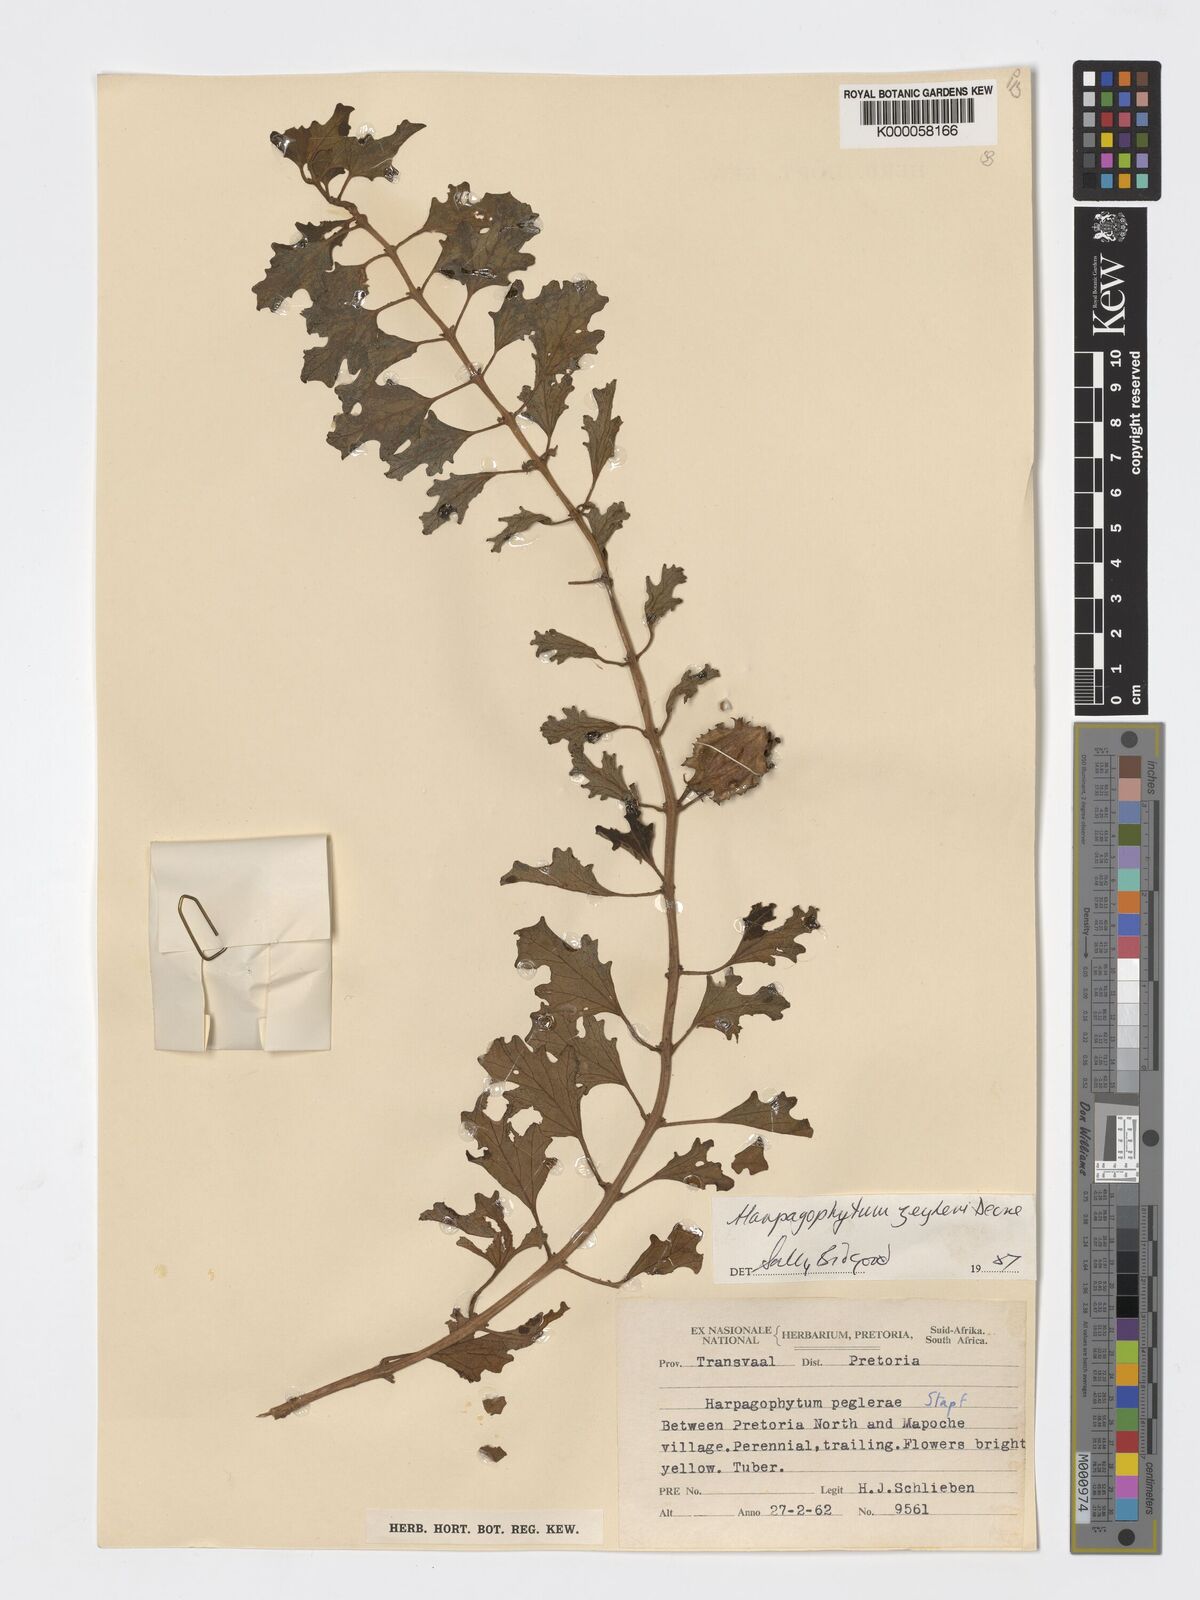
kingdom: Plantae
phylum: Tracheophyta
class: Magnoliopsida
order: Lamiales
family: Pedaliaceae
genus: Harpagophytum
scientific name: Harpagophytum zeyheri
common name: Grappleplant
